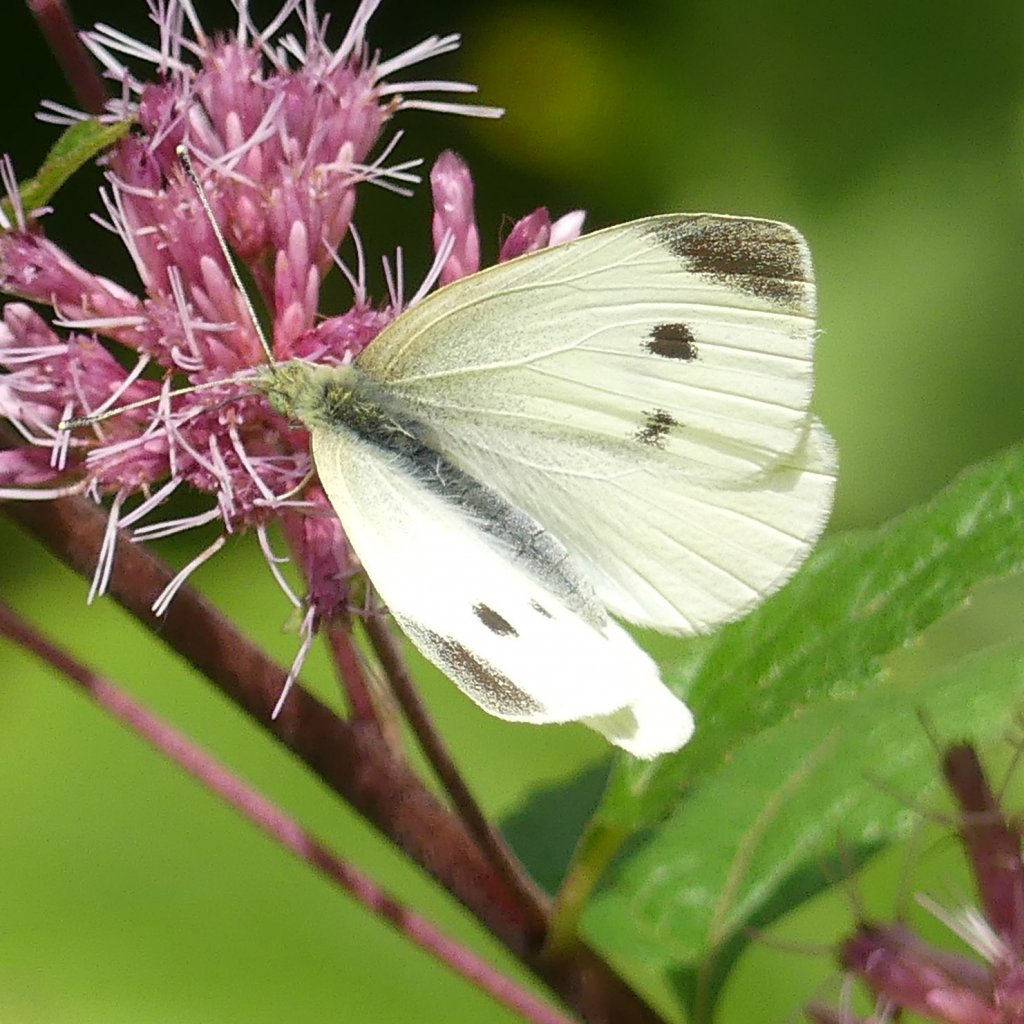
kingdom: Animalia
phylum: Arthropoda
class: Insecta
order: Lepidoptera
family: Pieridae
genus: Pieris
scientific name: Pieris rapae
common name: Cabbage White
